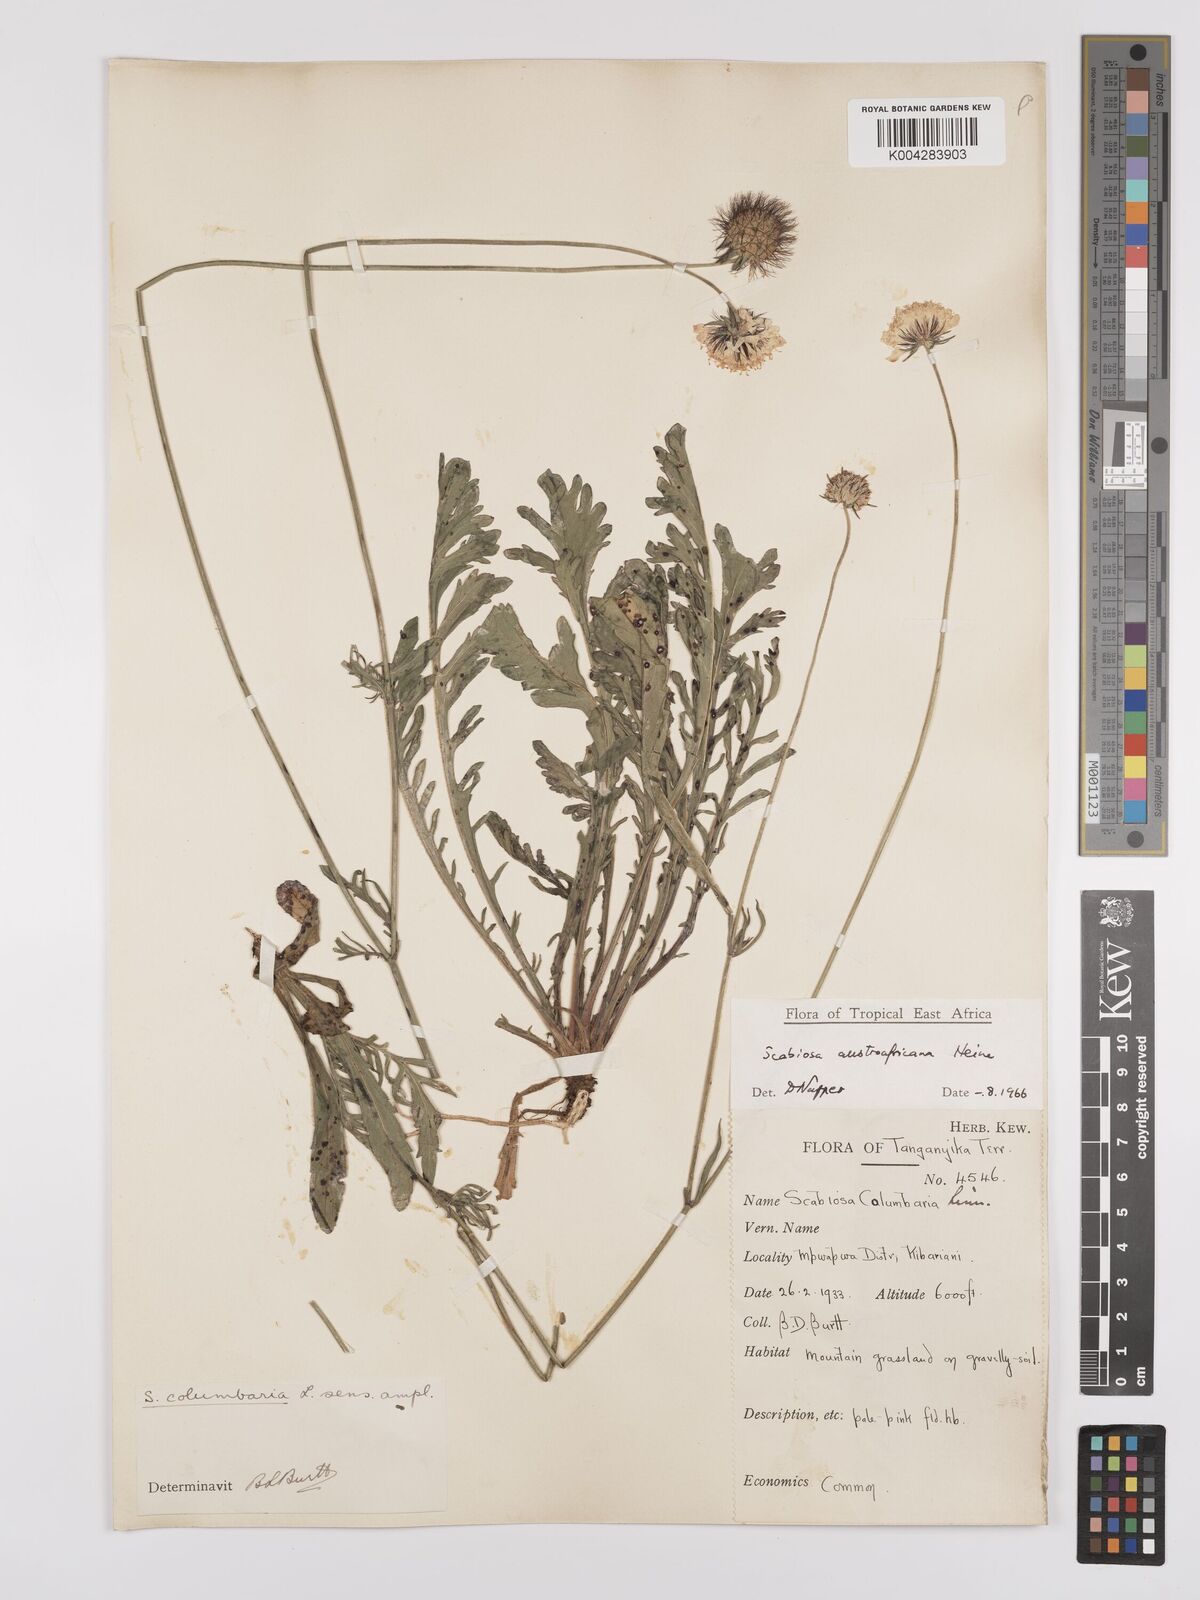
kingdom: Plantae
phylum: Tracheophyta
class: Magnoliopsida
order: Dipsacales
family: Caprifoliaceae
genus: Scabiosa
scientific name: Scabiosa austroafricana
